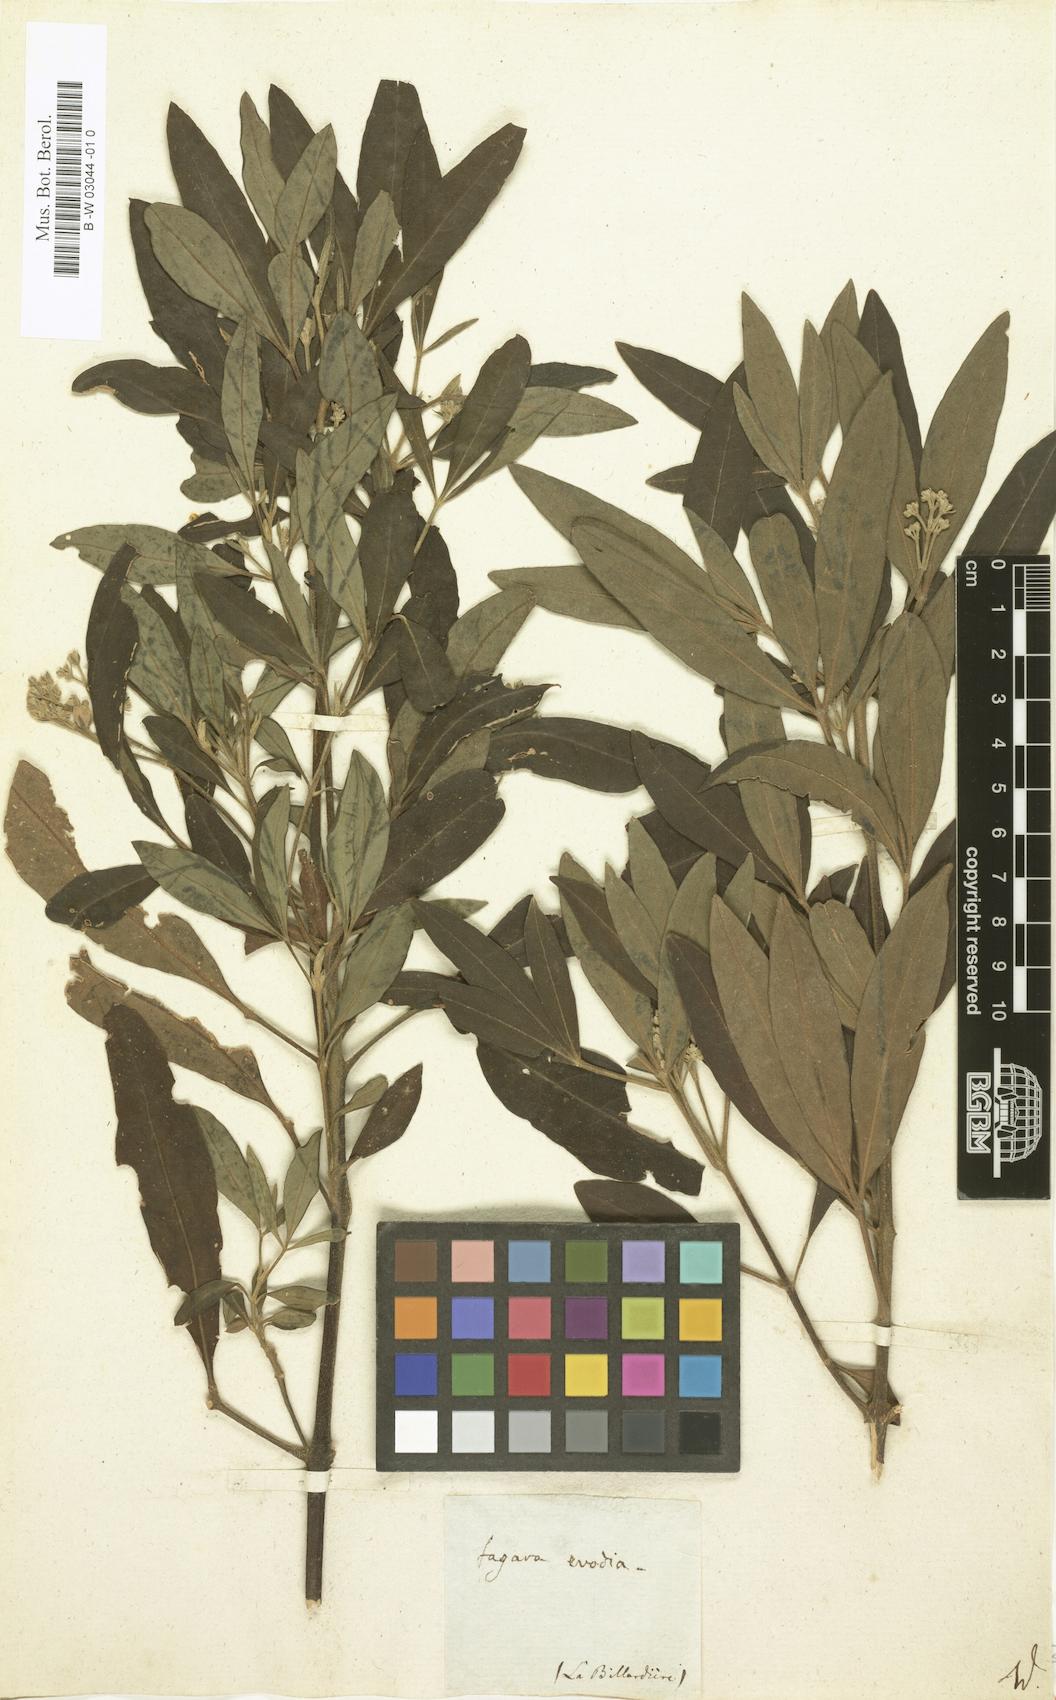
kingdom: Plantae
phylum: Tracheophyta
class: Magnoliopsida
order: Sapindales
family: Rutaceae
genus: Zanthoxylum
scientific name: Zanthoxylum Fagara evodia
